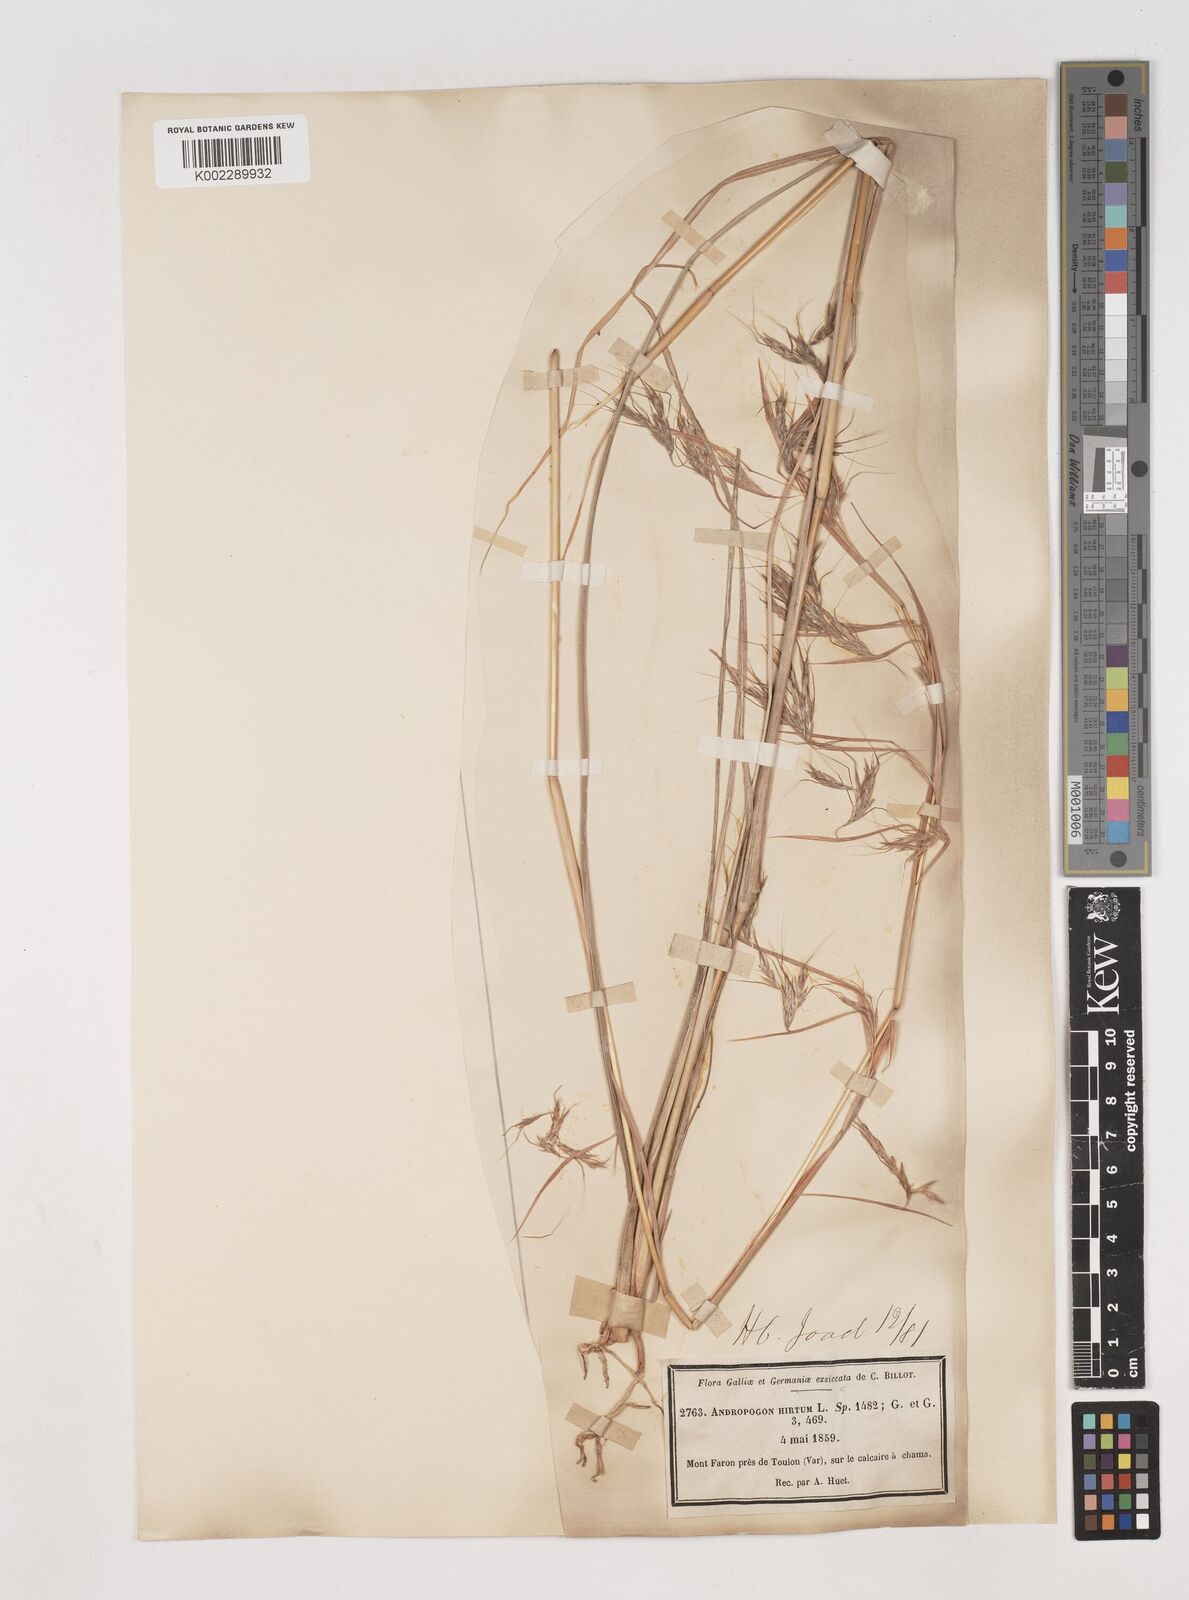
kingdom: Plantae
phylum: Tracheophyta
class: Liliopsida
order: Poales
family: Poaceae
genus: Hyparrhenia
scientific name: Hyparrhenia hirta
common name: Thatching grass
